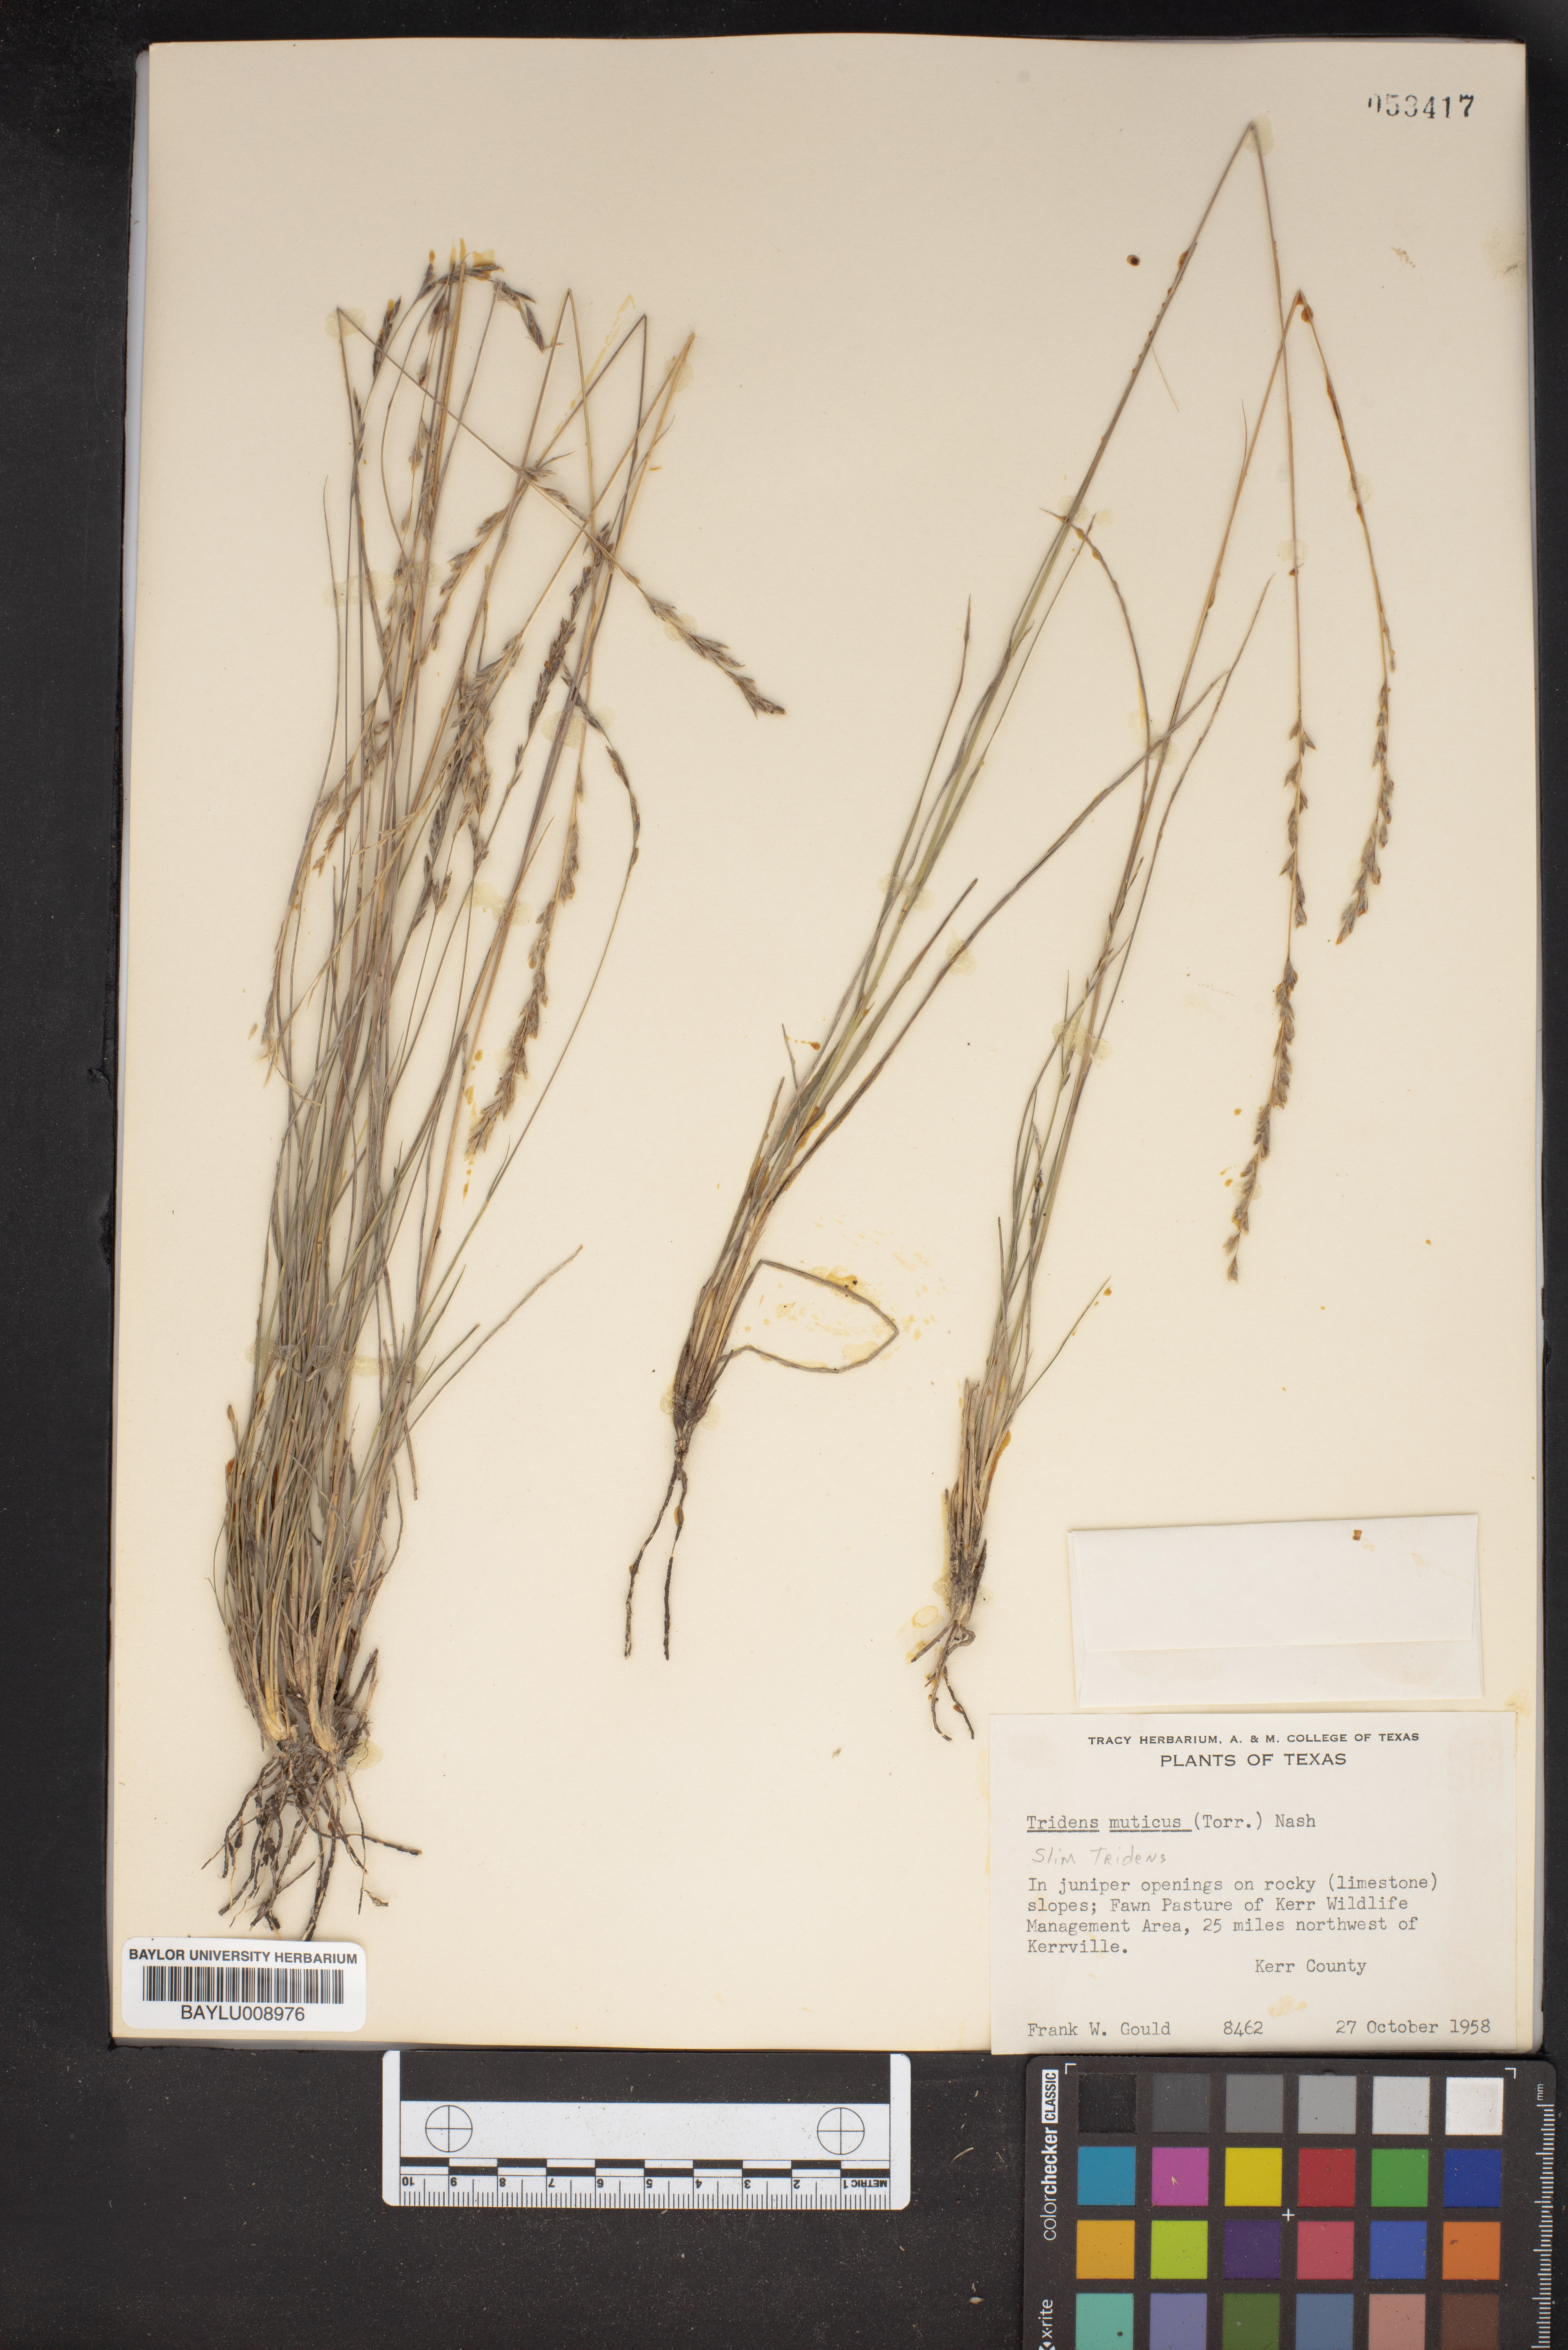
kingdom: Plantae
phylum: Tracheophyta
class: Liliopsida
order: Poales
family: Poaceae
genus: Tridentopsis
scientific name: Tridentopsis mutica
